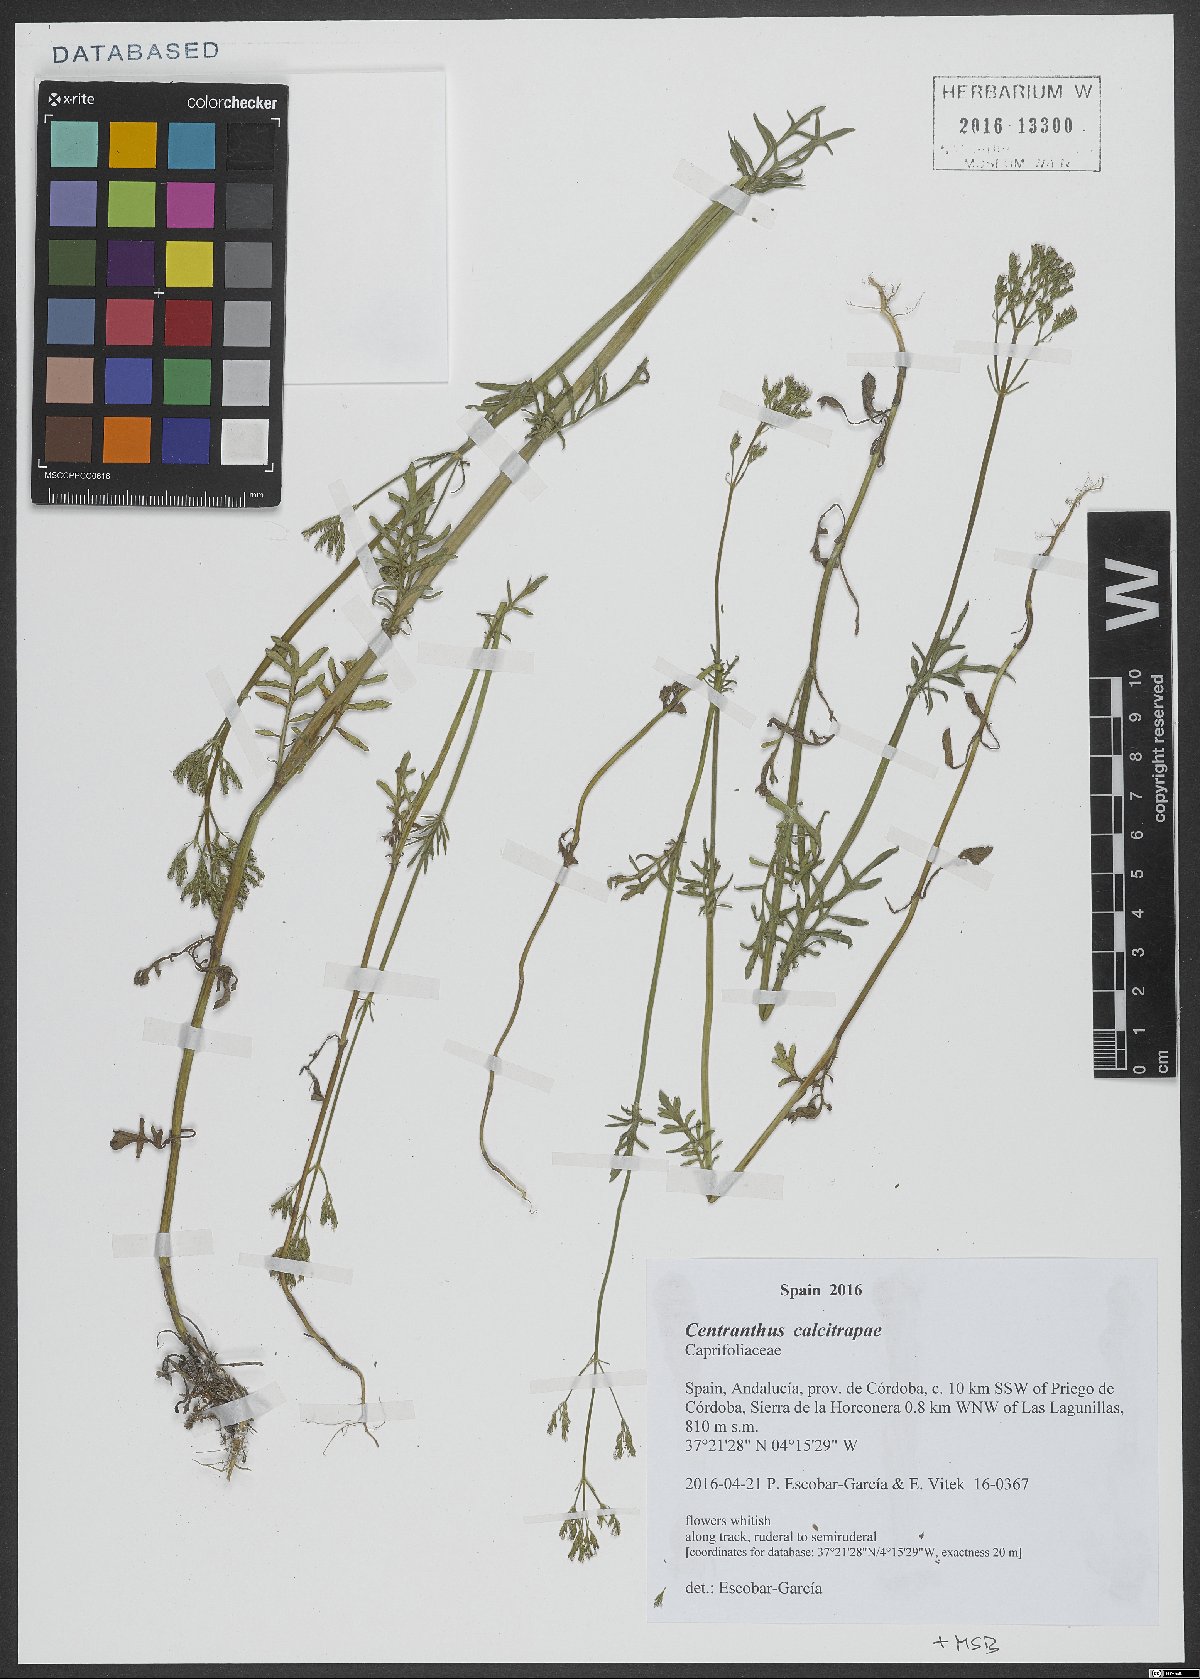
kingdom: Plantae
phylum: Tracheophyta
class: Magnoliopsida
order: Dipsacales
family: Caprifoliaceae
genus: Centranthus
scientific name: Centranthus calcitrapae
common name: Annual valerian
